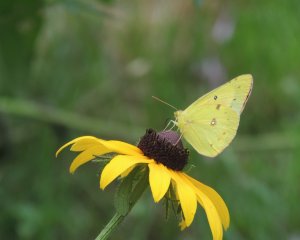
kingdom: Animalia
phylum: Arthropoda
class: Insecta
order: Lepidoptera
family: Pieridae
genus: Colias
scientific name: Colias eurytheme
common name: Orange Sulphur
